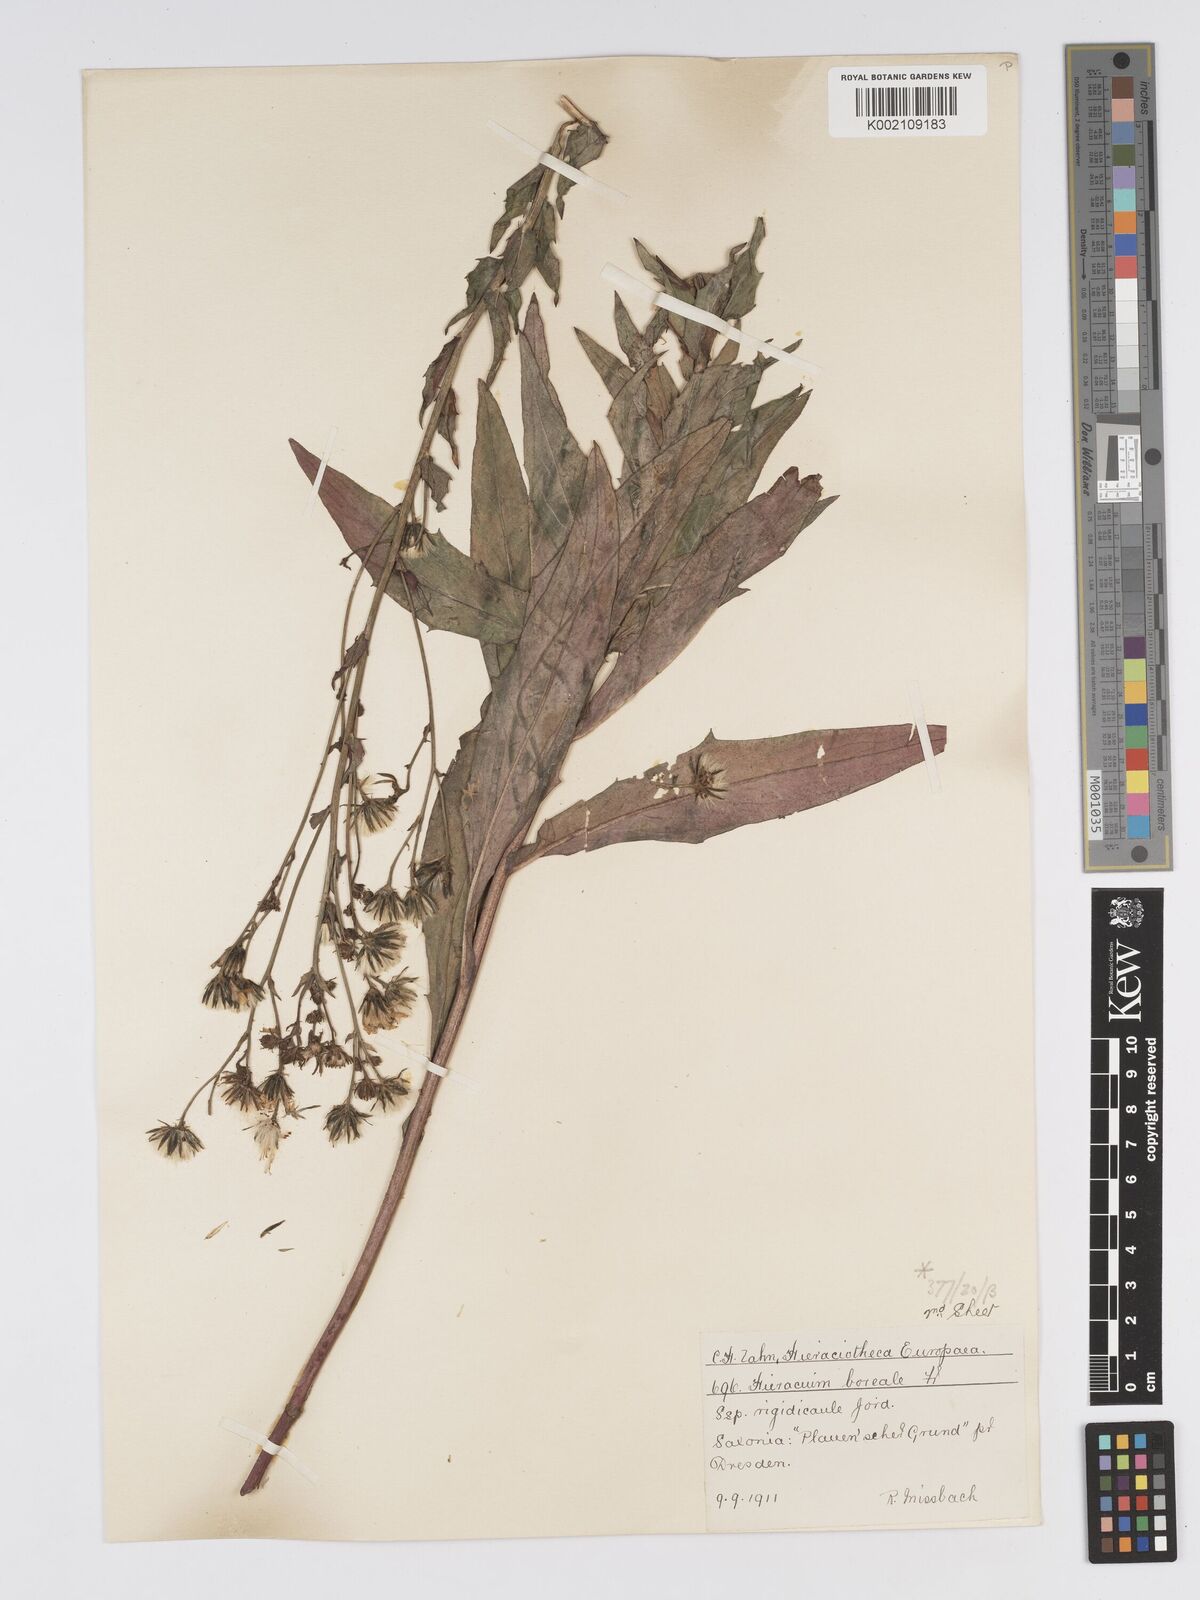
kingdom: Plantae
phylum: Tracheophyta
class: Magnoliopsida
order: Asterales
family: Asteraceae
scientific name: Asteraceae
